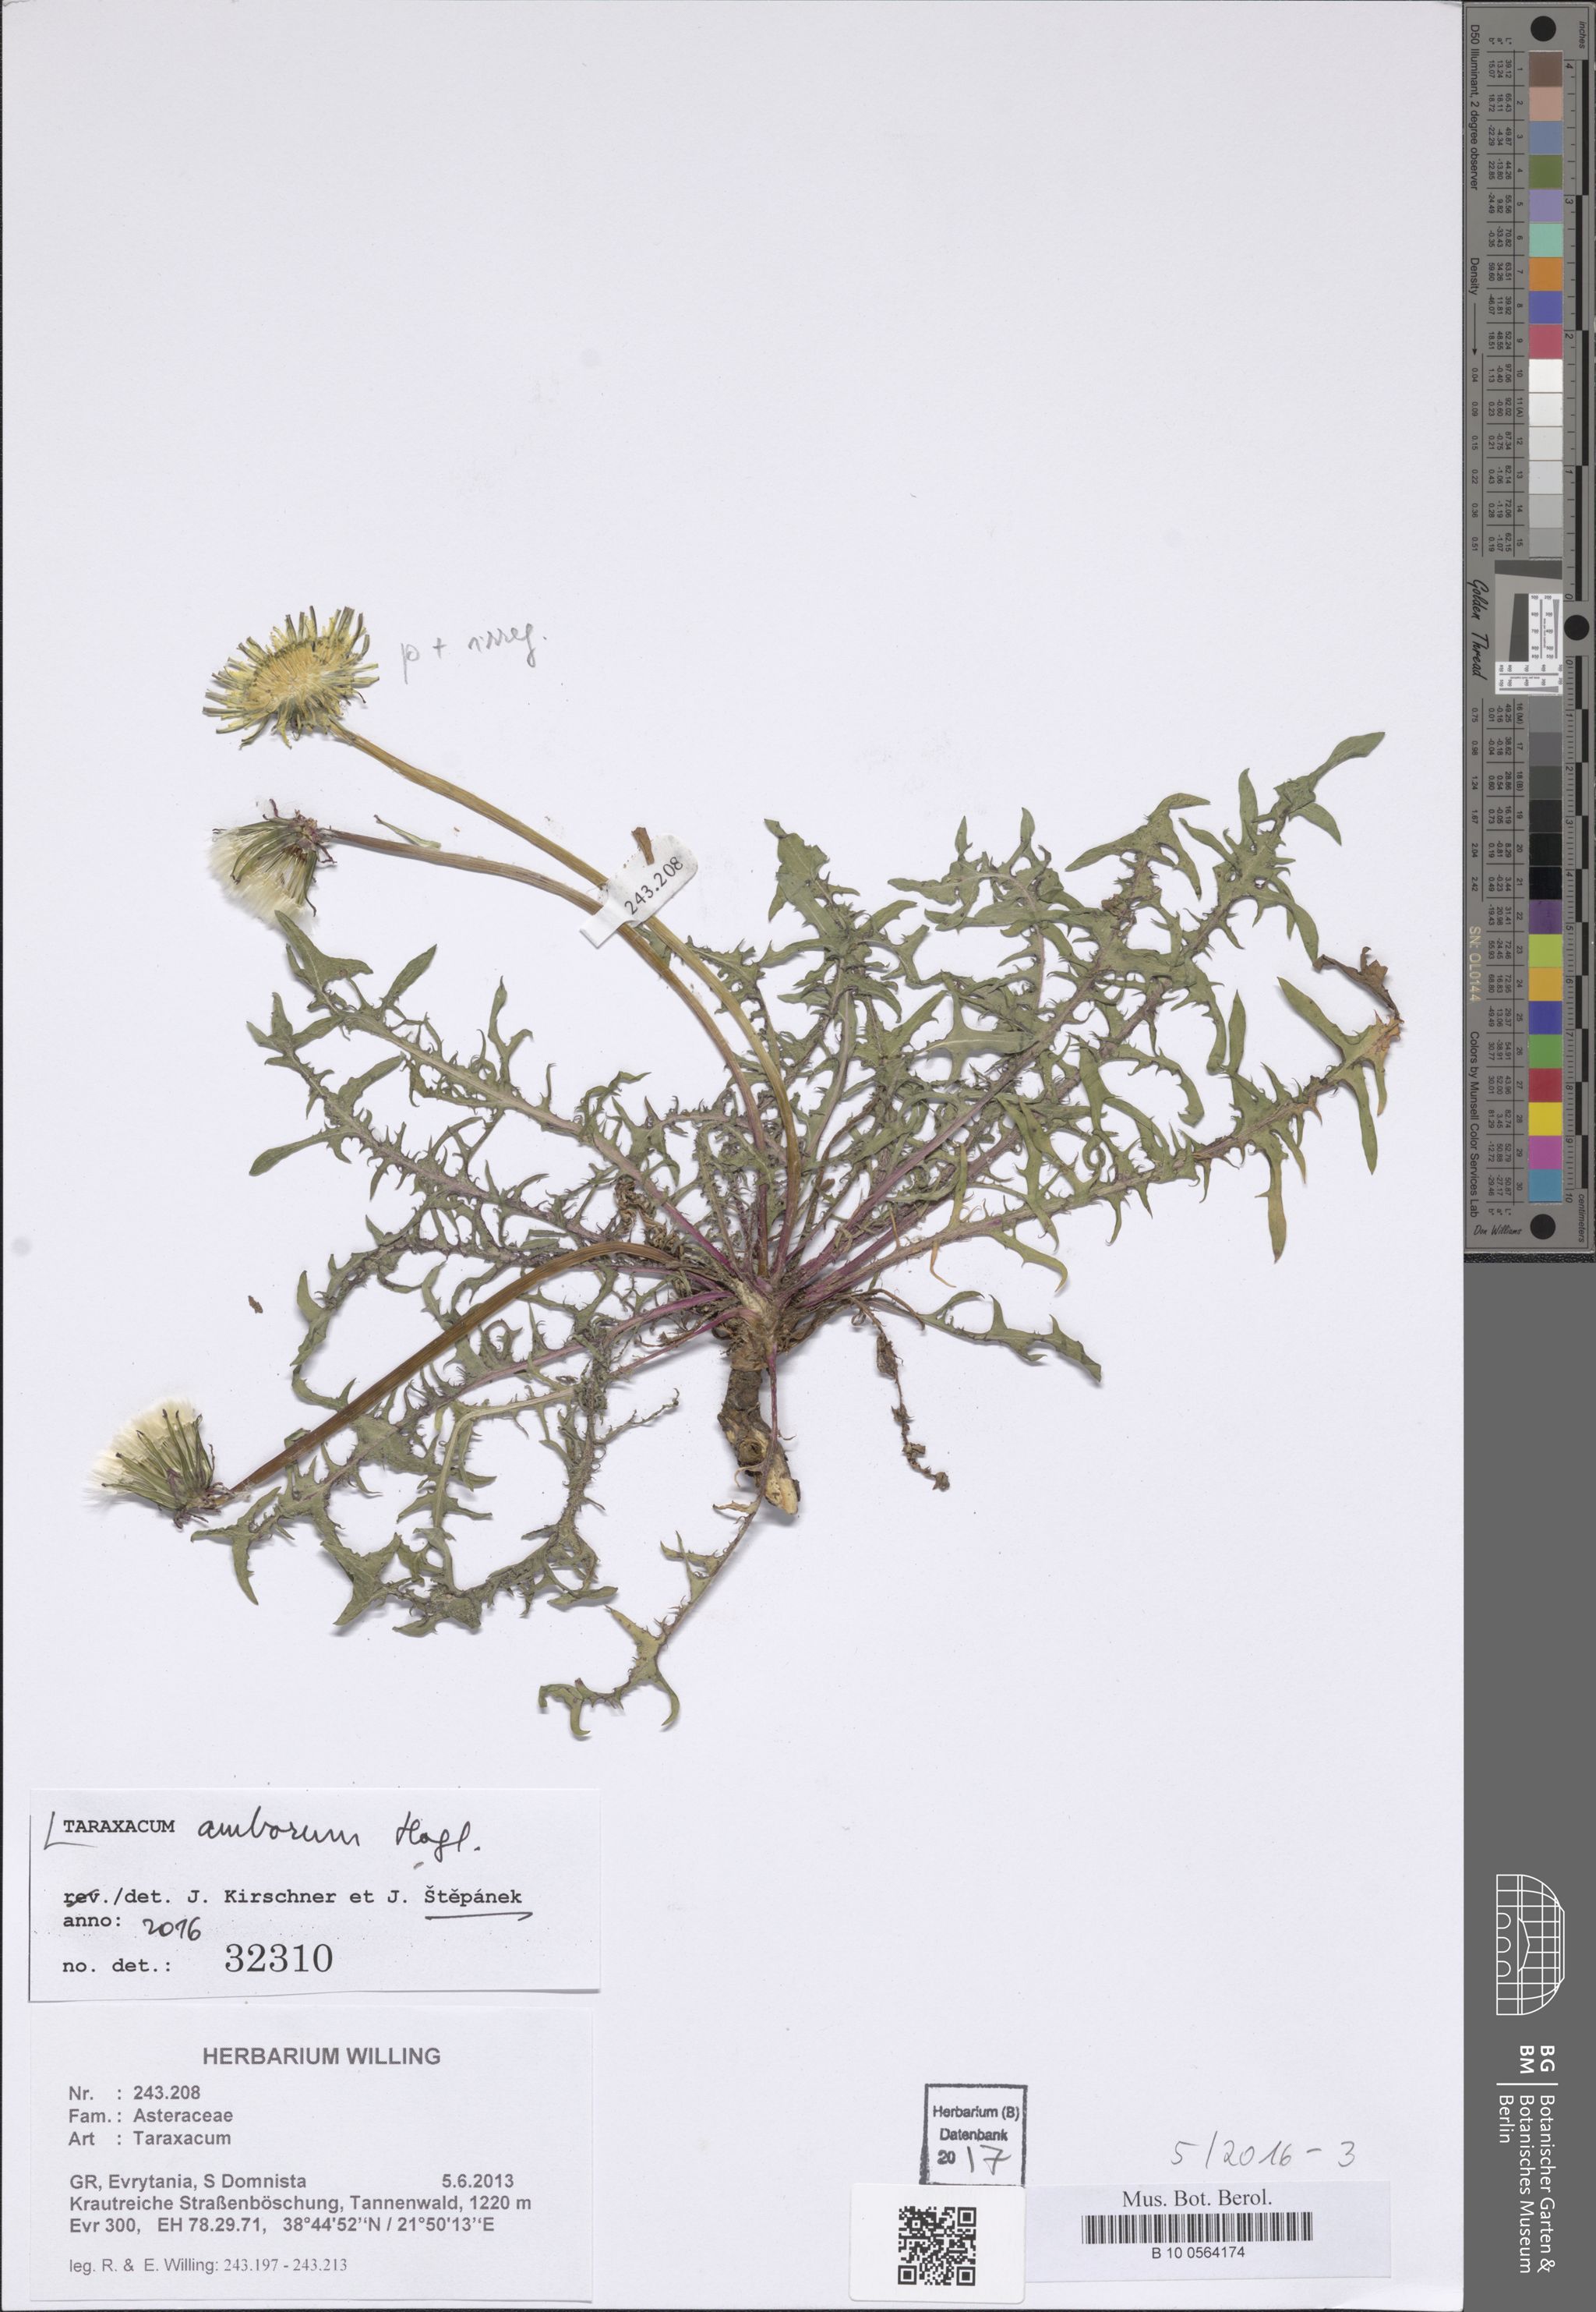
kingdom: Plantae
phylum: Tracheophyta
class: Magnoliopsida
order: Asterales
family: Asteraceae
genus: Taraxacum
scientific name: Taraxacum amborum
